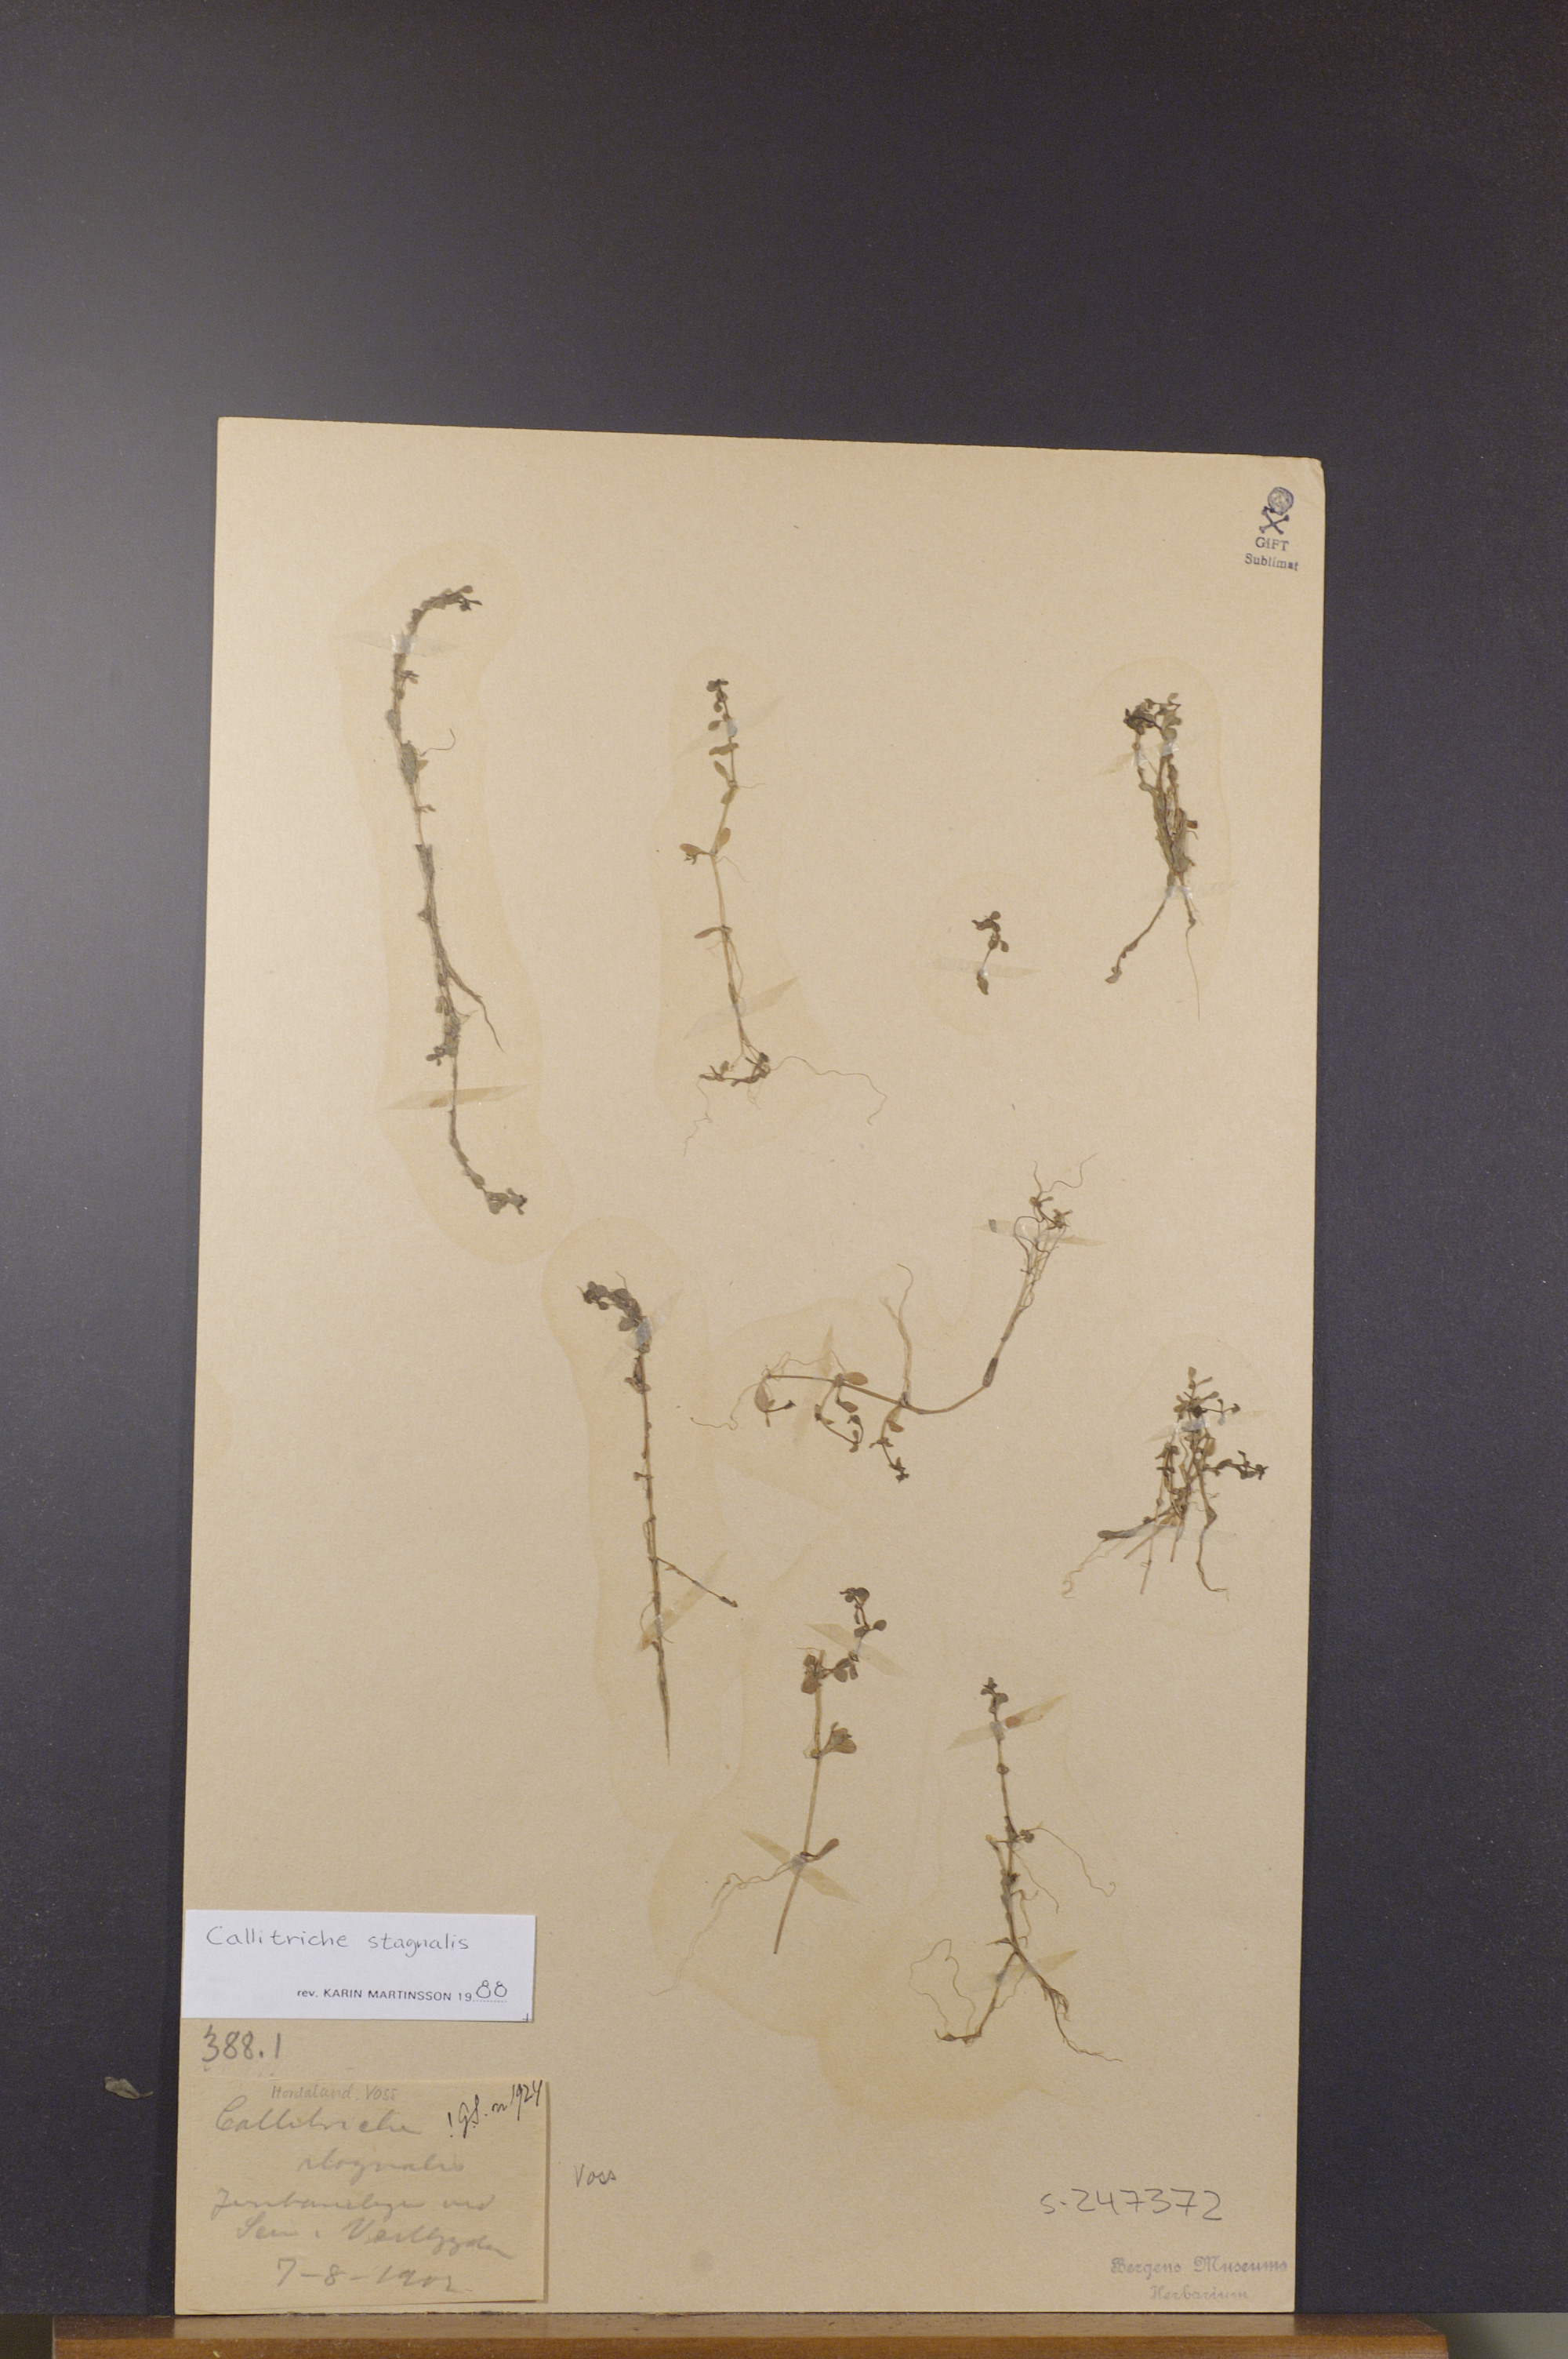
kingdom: Plantae
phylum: Tracheophyta
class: Magnoliopsida
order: Lamiales
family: Plantaginaceae
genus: Callitriche
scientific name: Callitriche stagnalis
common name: Common water-starwort
